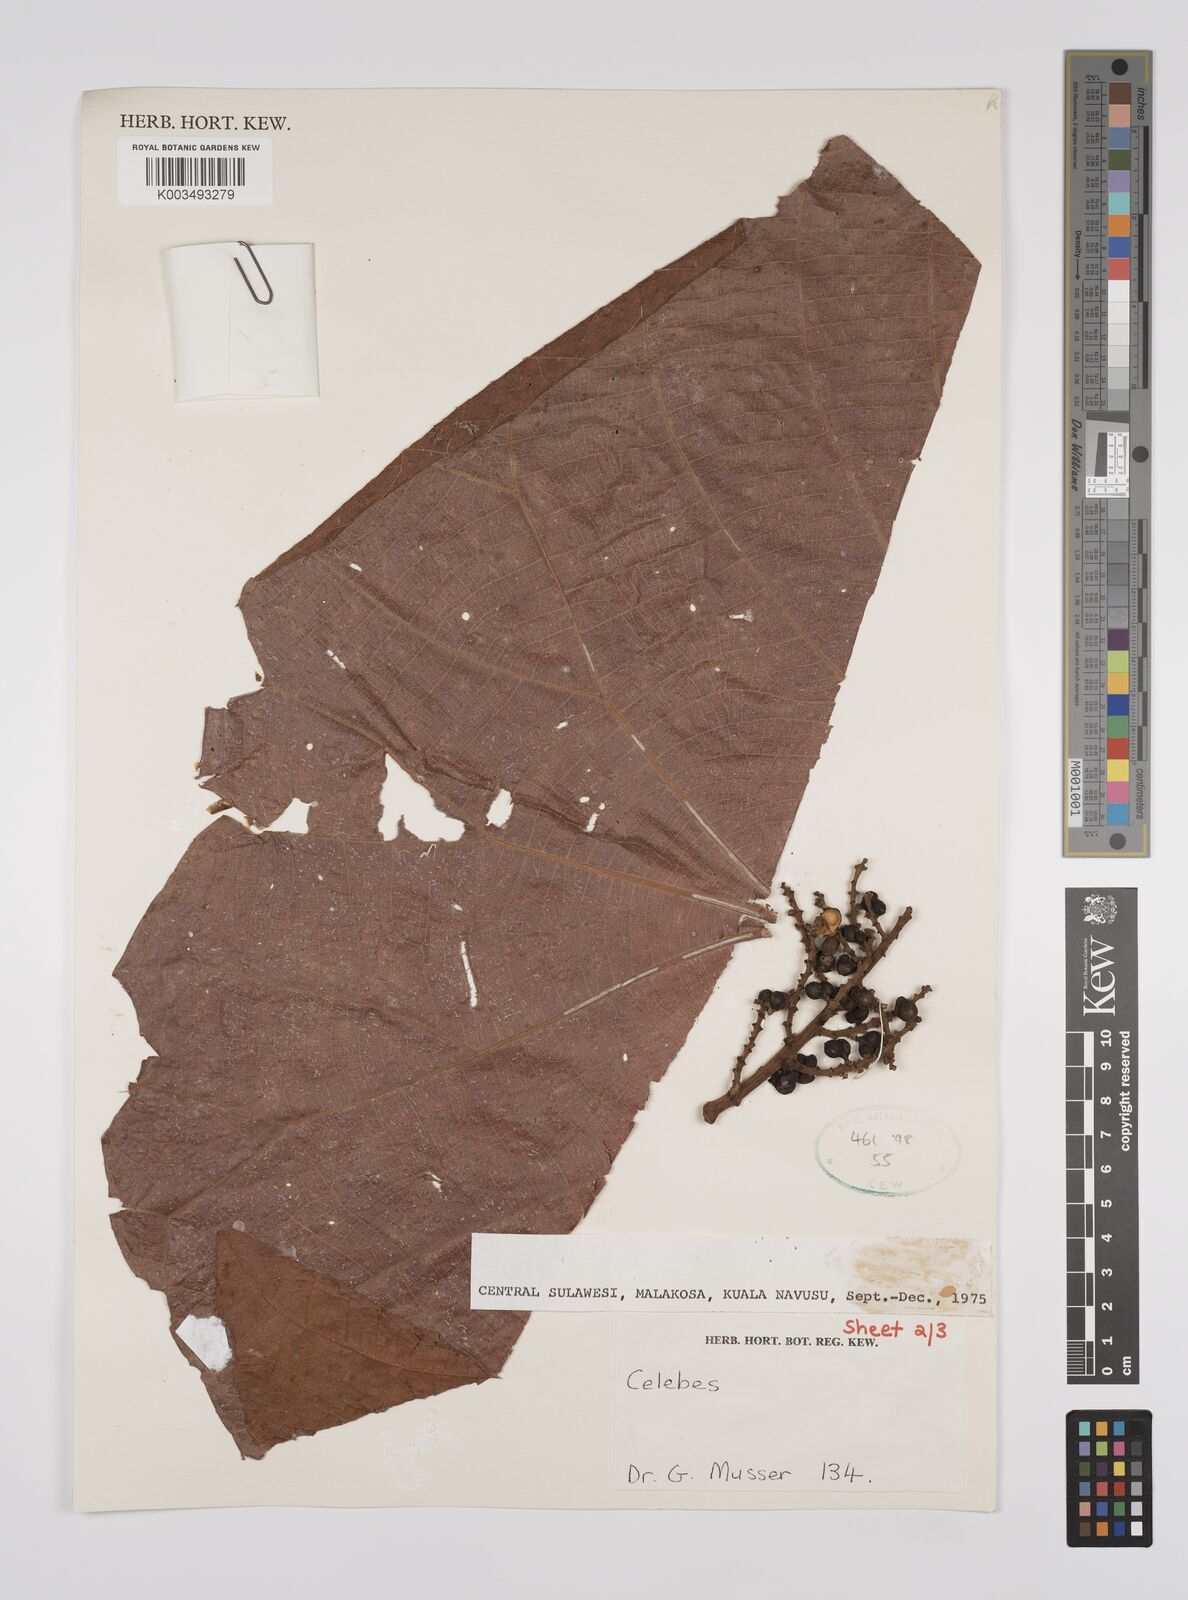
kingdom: Plantae
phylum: Tracheophyta
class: Magnoliopsida
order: Malpighiales
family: Euphorbiaceae
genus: Macaranga
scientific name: Macaranga mappa
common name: Pengua
